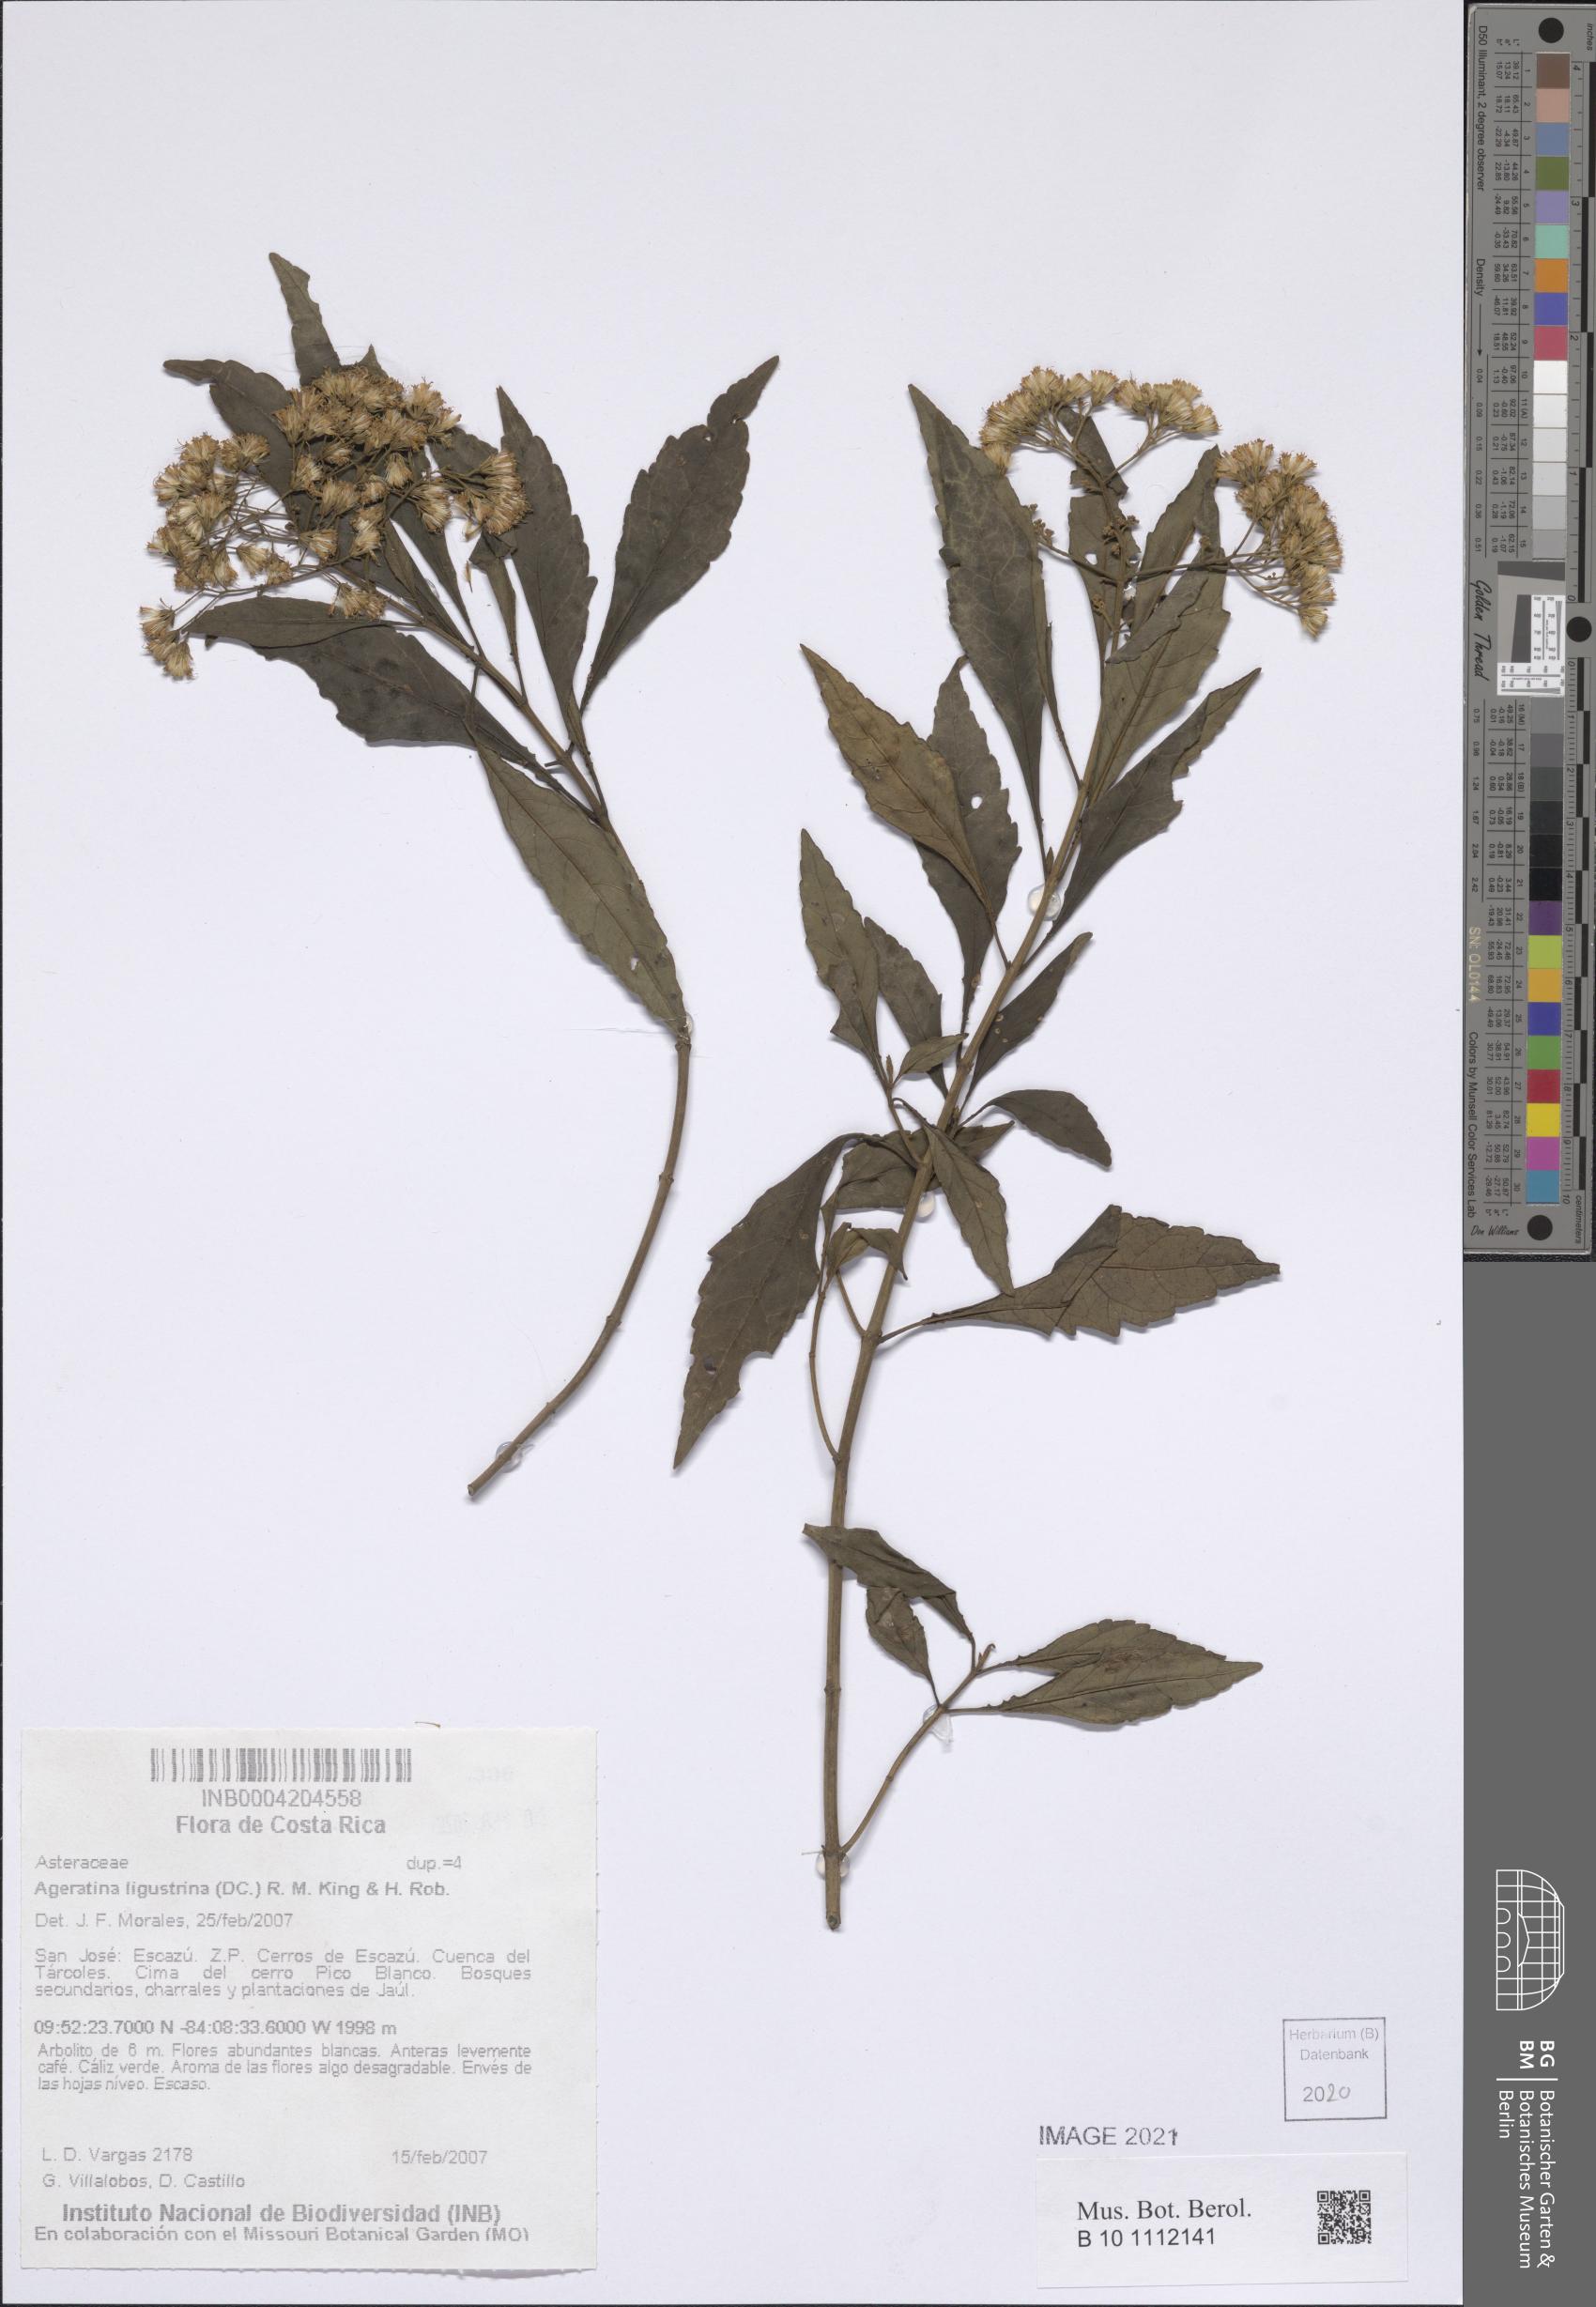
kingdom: Plantae
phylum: Tracheophyta
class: Magnoliopsida
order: Asterales
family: Asteraceae
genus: Ageratina
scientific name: Ageratina ligustrina
